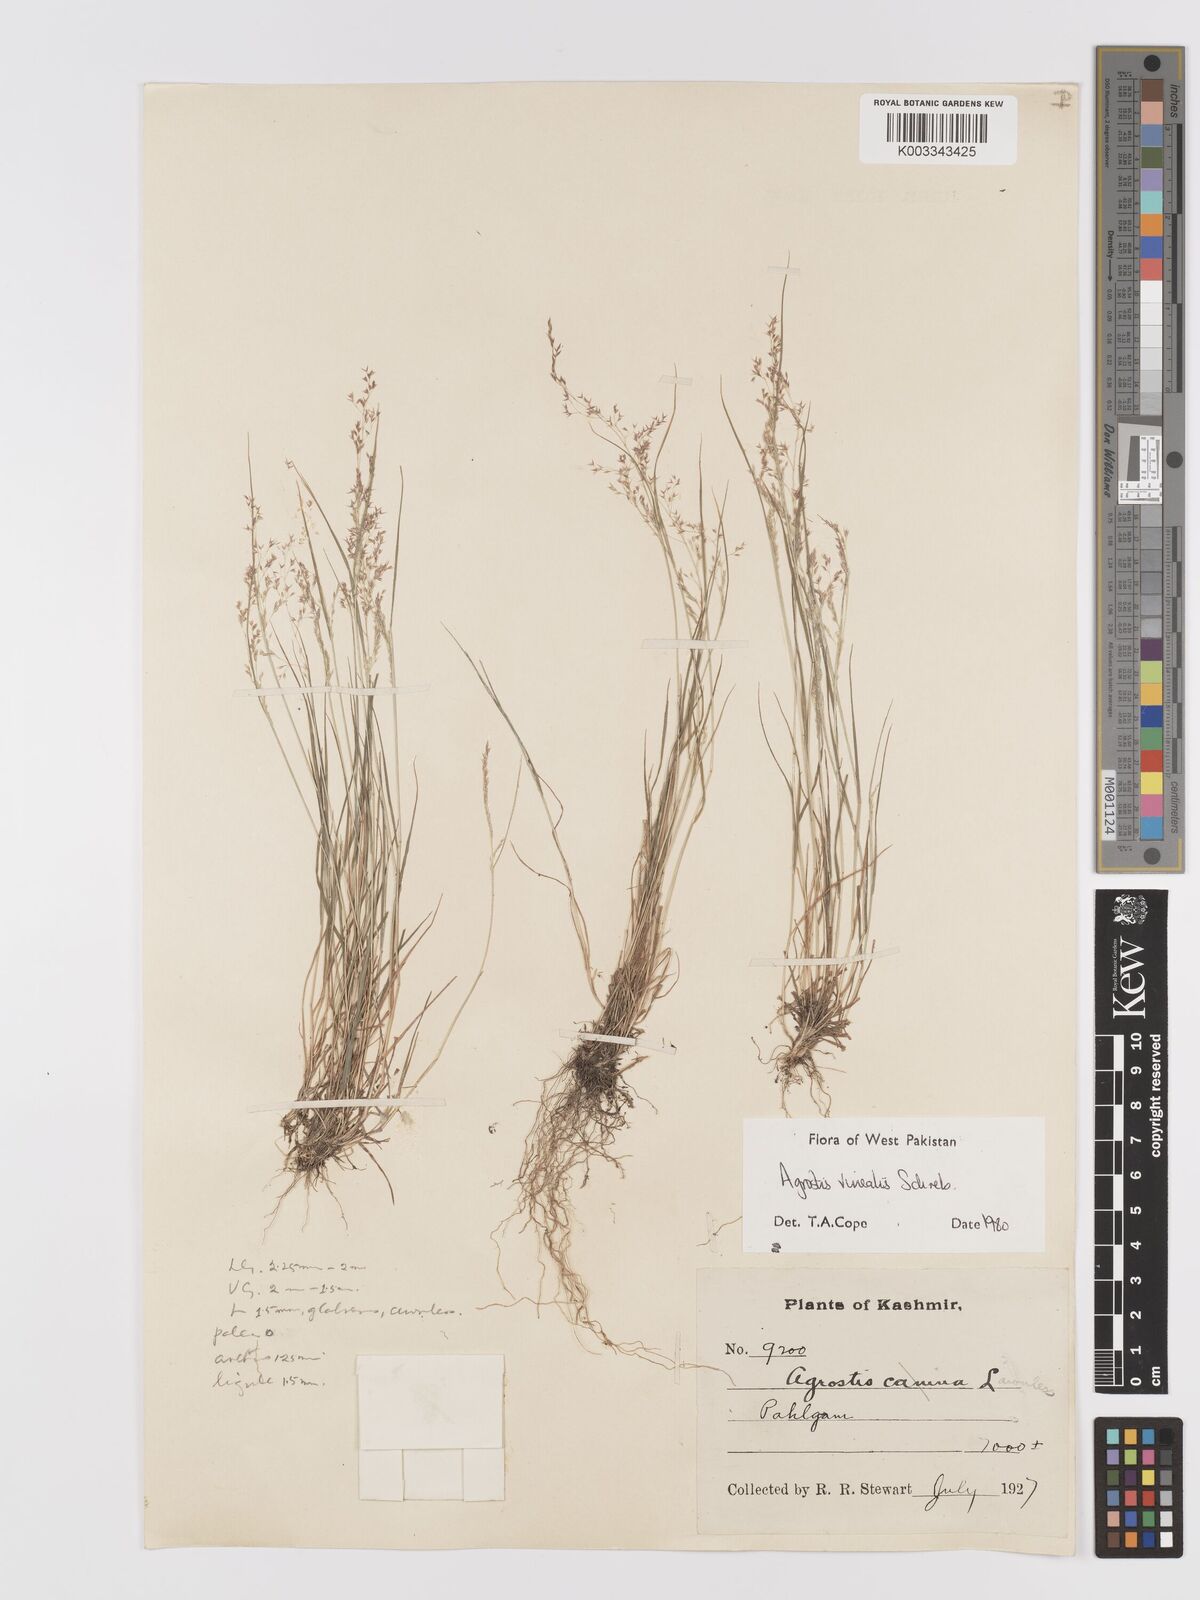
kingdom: Plantae
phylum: Tracheophyta
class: Liliopsida
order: Poales
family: Poaceae
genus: Agrostis
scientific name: Agrostis vinealis
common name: Brown bent
